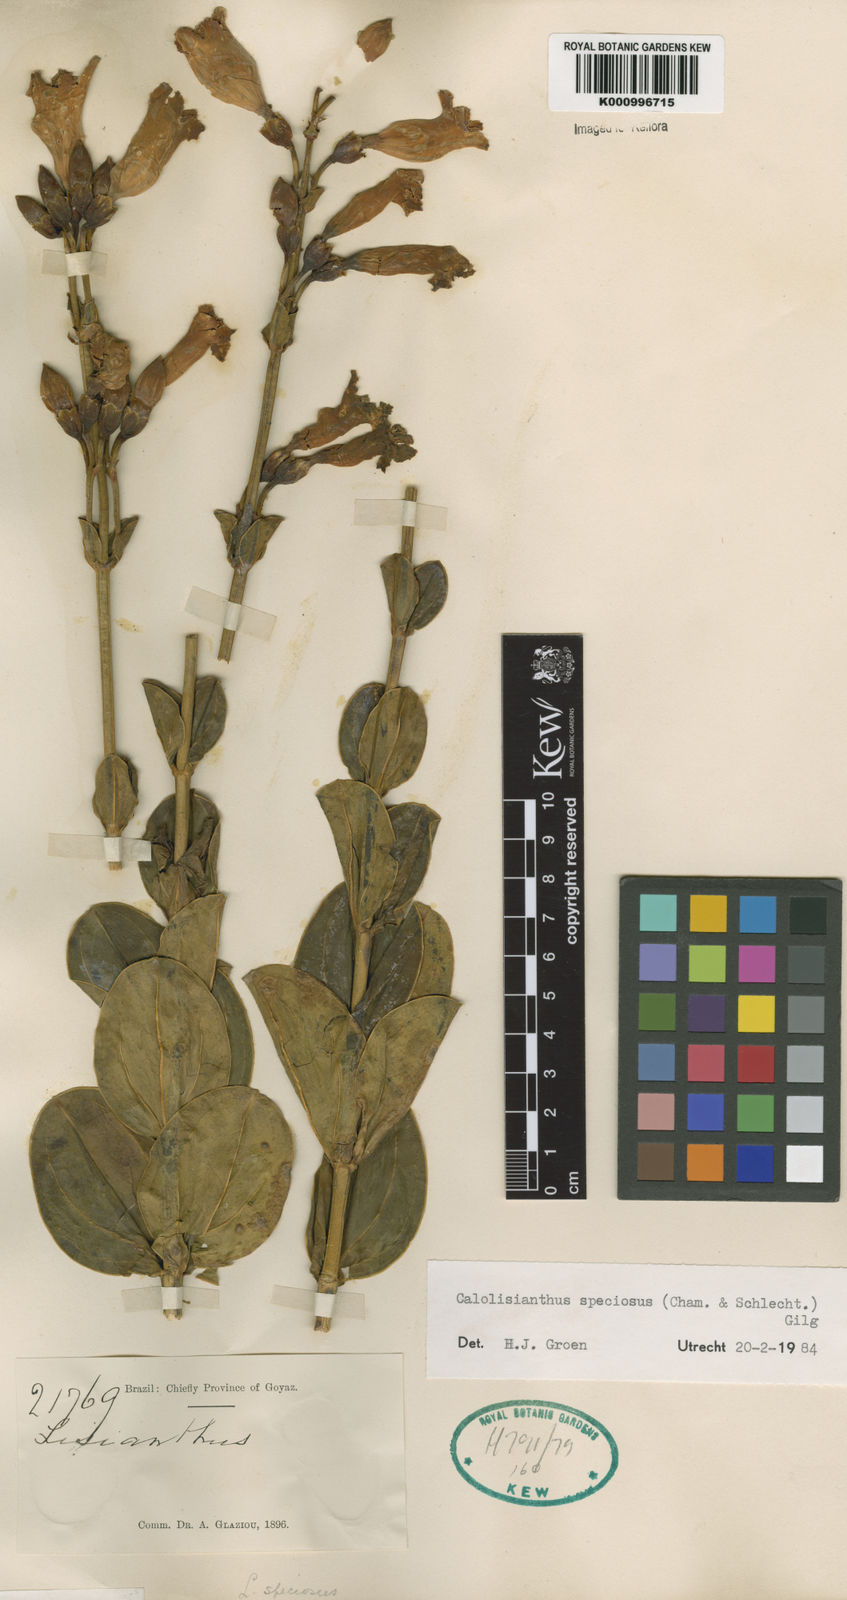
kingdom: Plantae
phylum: Tracheophyta
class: Magnoliopsida
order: Gentianales
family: Gentianaceae
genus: Calolisianthus
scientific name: Calolisianthus speciosus
